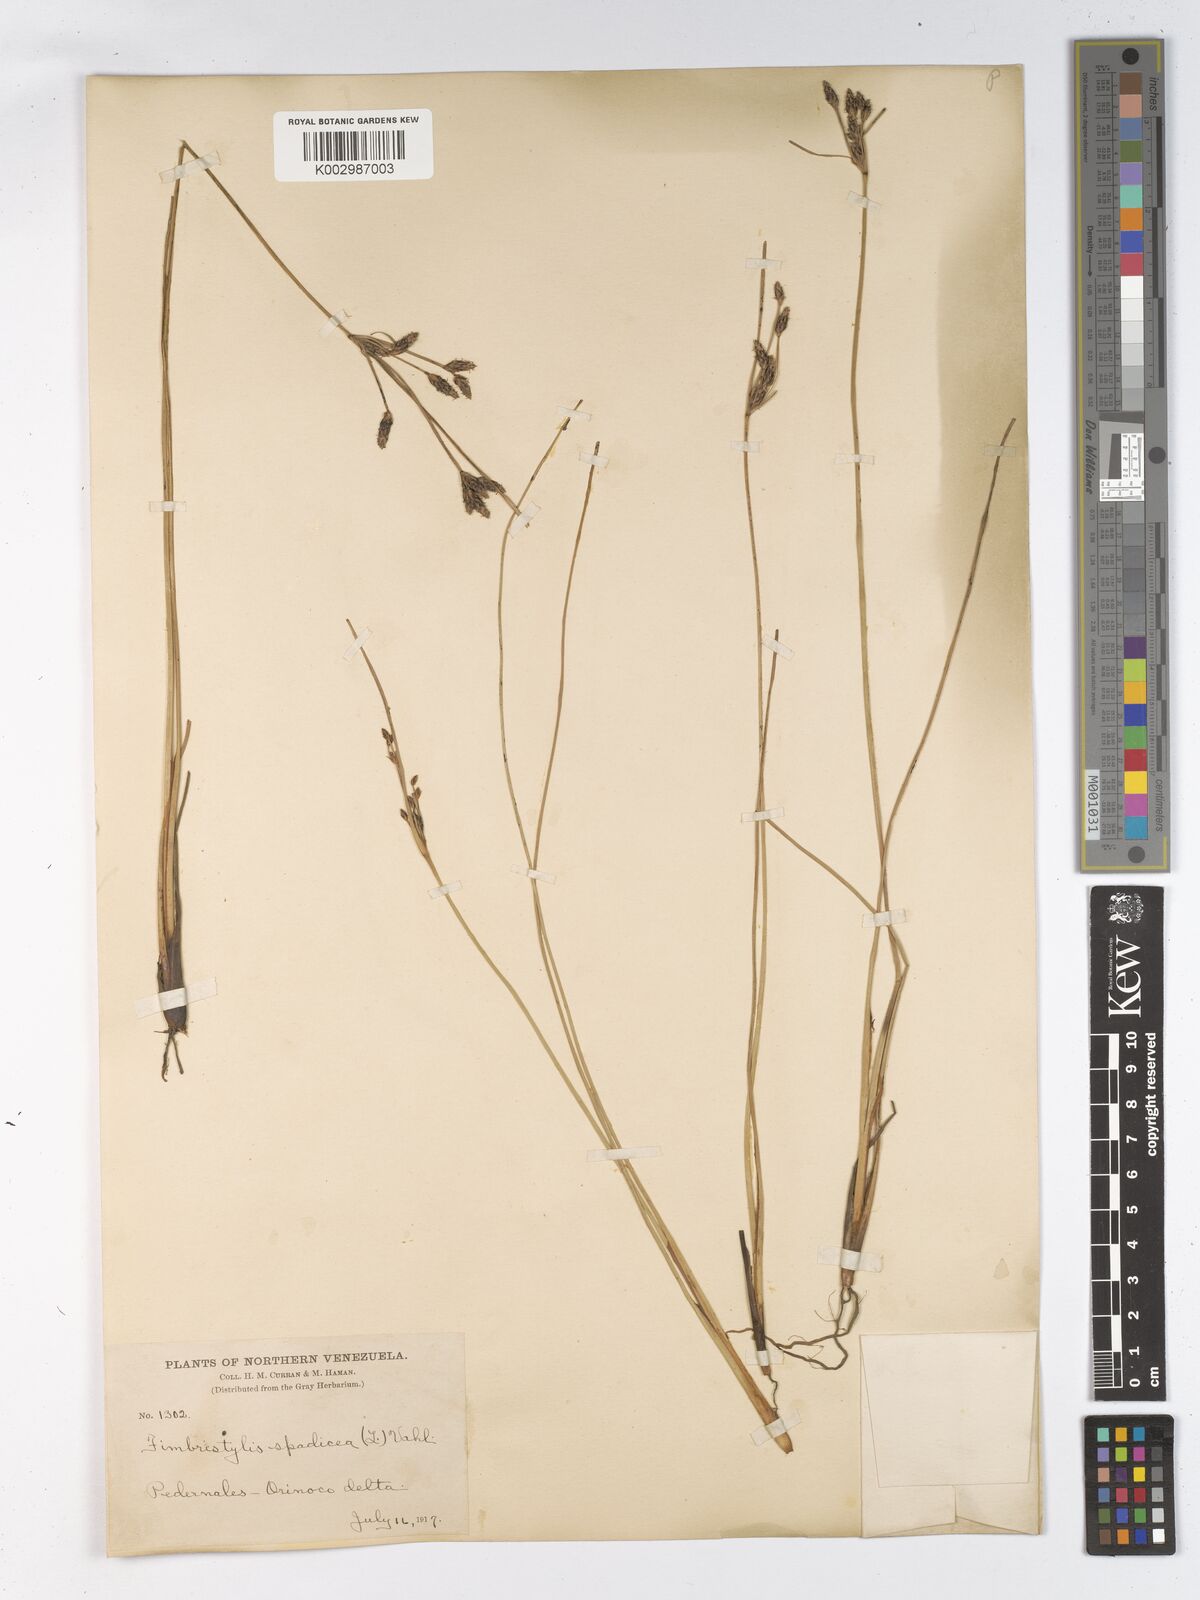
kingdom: Plantae
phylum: Tracheophyta
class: Liliopsida
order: Poales
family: Cyperaceae
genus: Fimbristylis
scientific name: Fimbristylis spadicea
